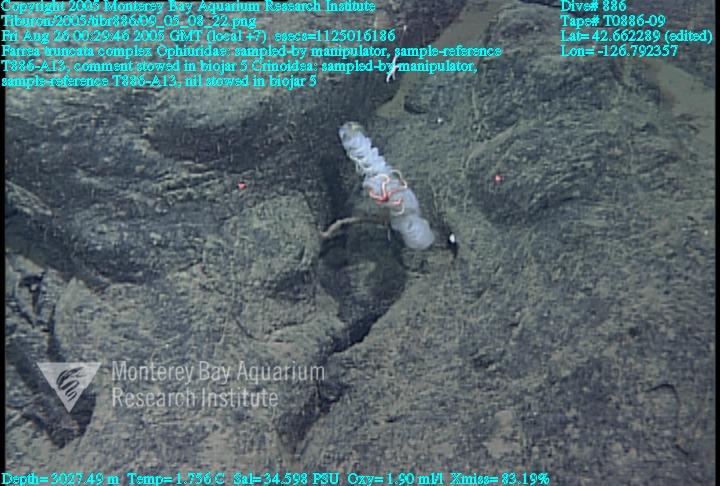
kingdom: Animalia
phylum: Porifera
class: Hexactinellida
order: Sceptrulophora
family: Farreidae
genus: Farrea
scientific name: Farrea truncata
